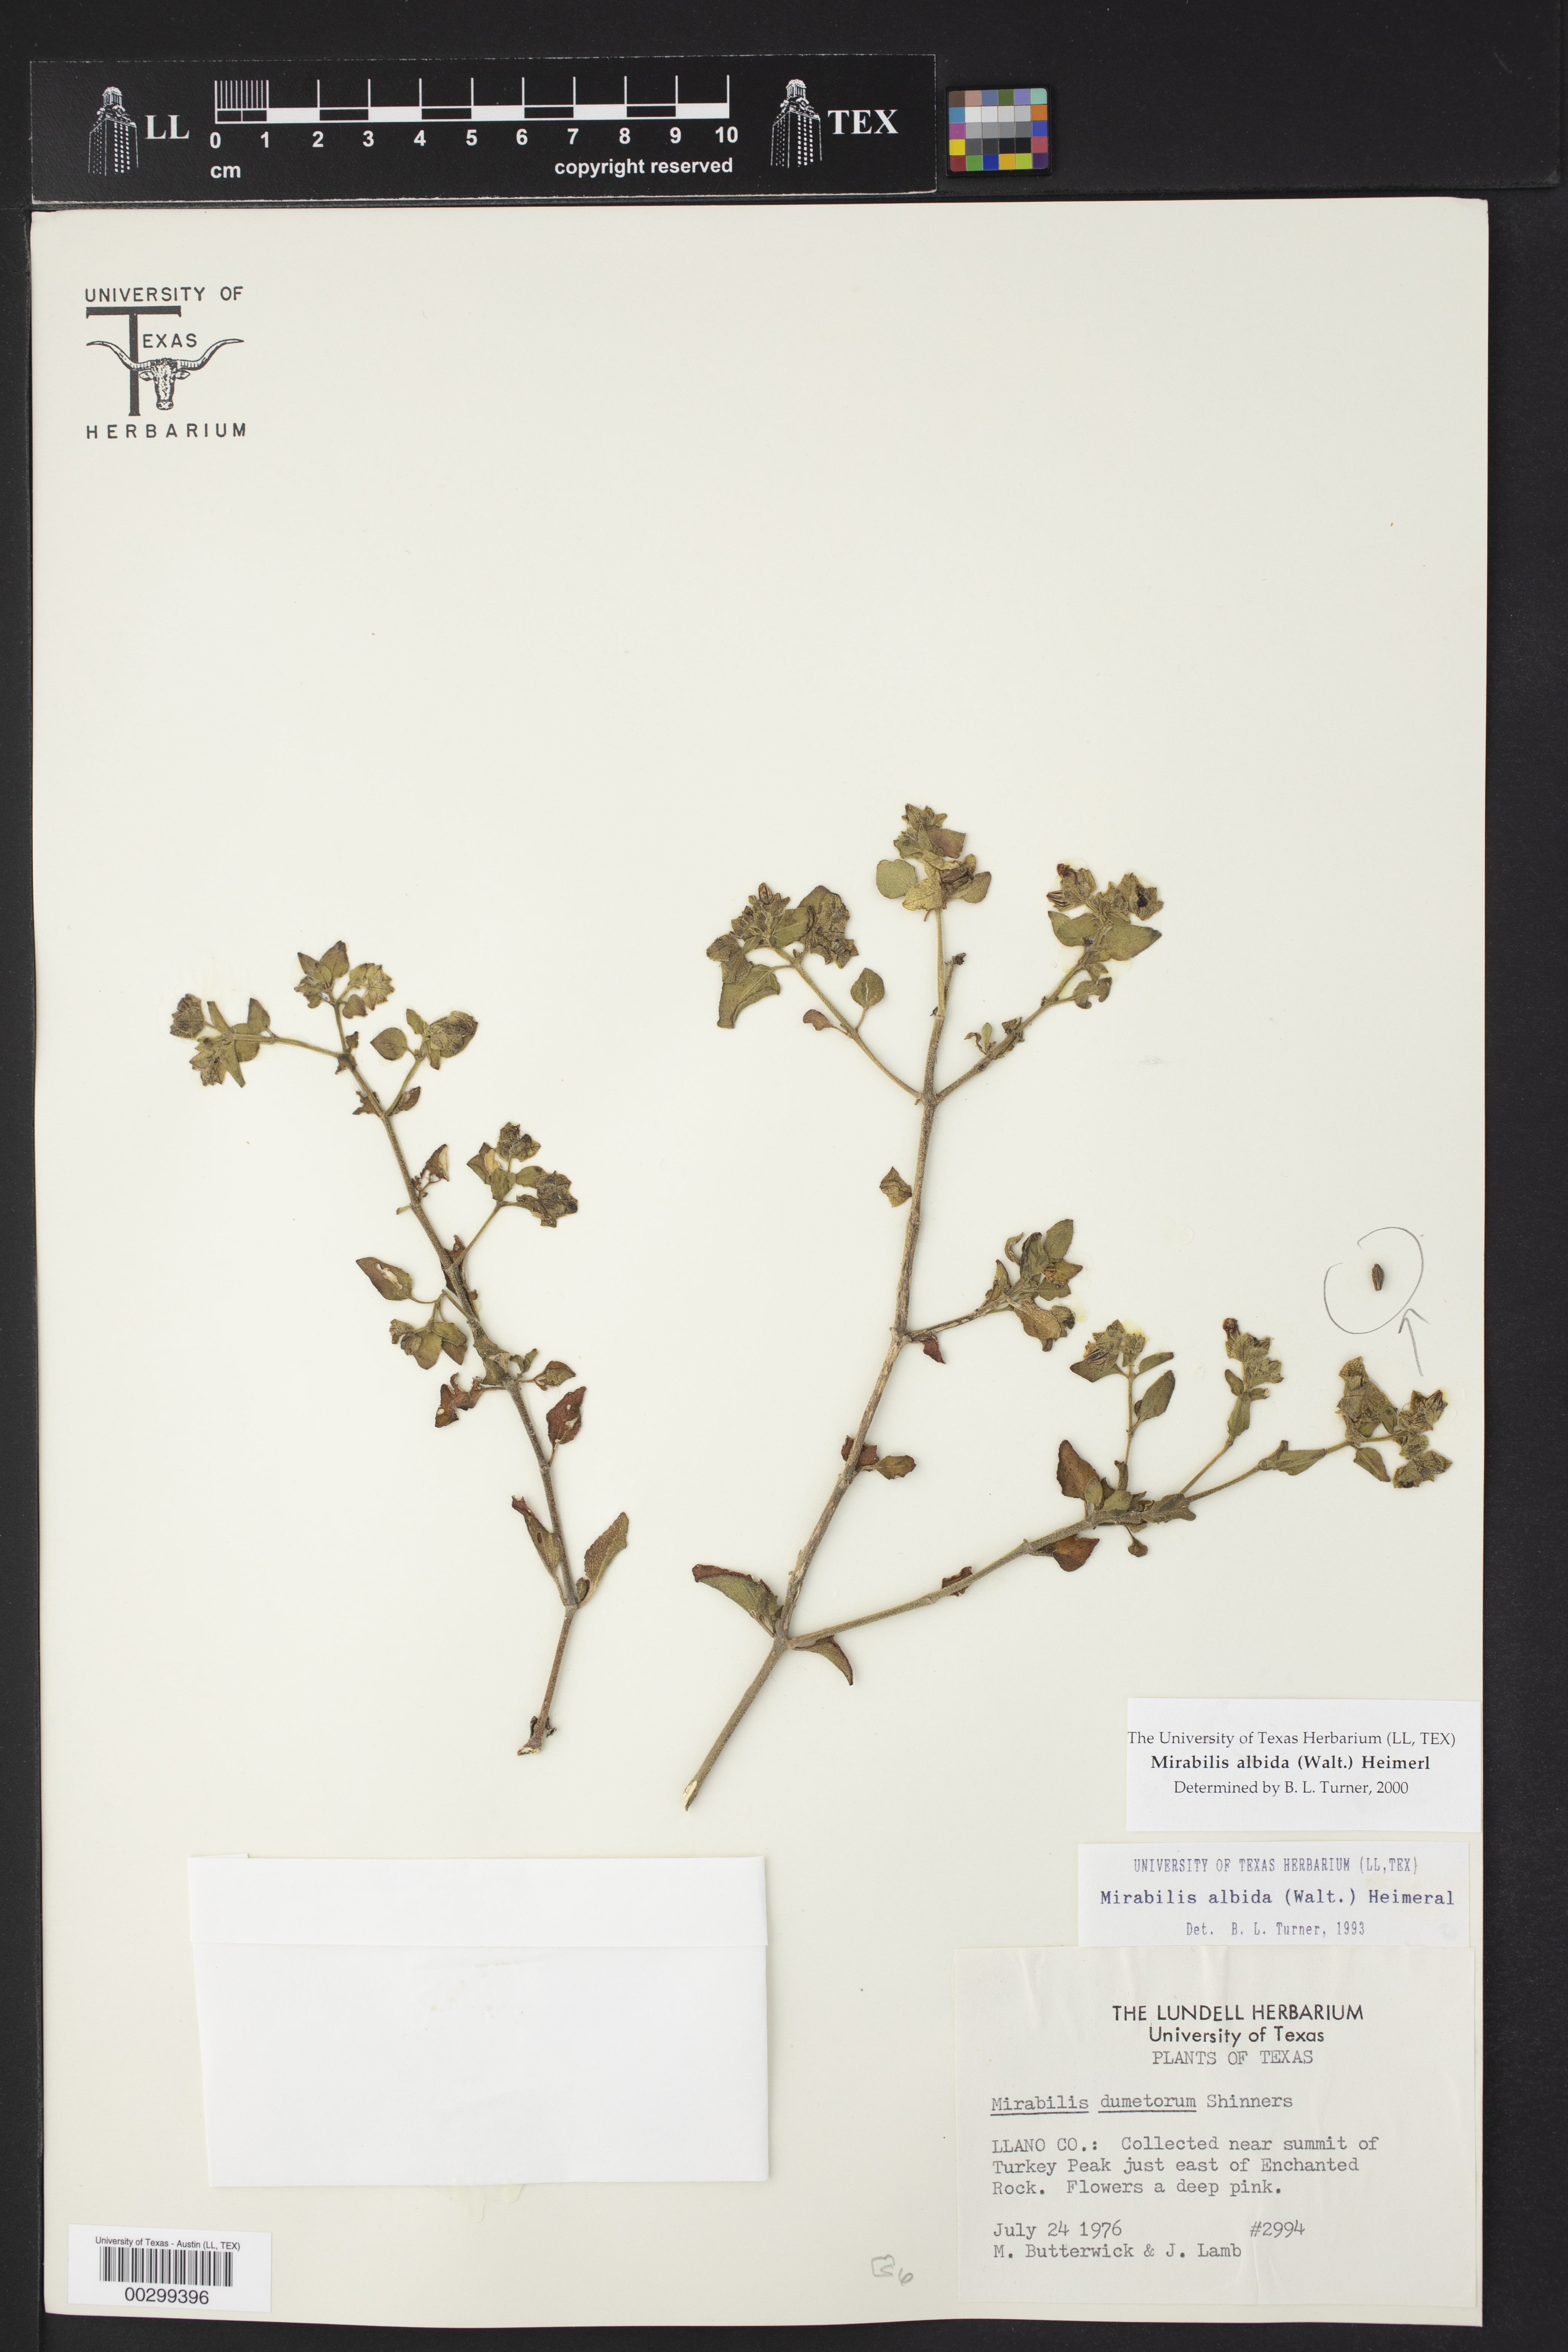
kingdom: Plantae
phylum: Tracheophyta
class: Magnoliopsida
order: Caryophyllales
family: Nyctaginaceae
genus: Mirabilis
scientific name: Mirabilis albida
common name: Hairy four-o'clock
